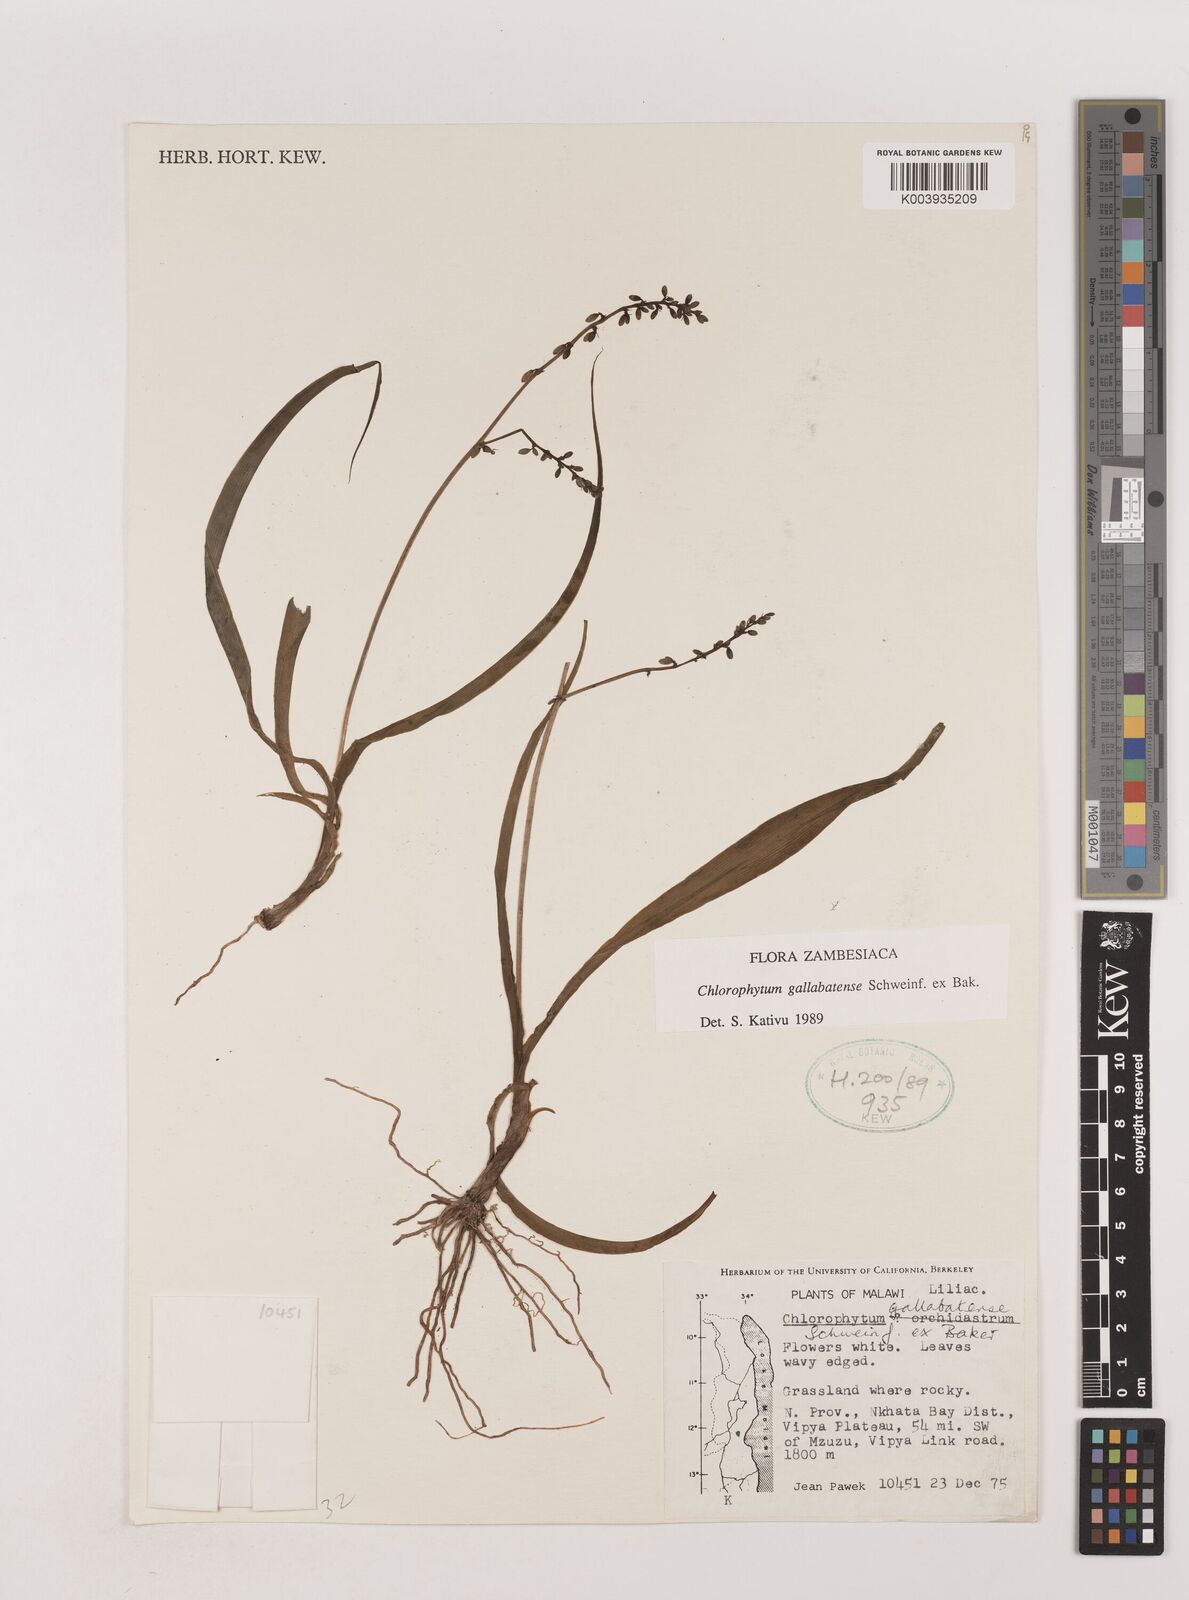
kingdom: Plantae
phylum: Tracheophyta
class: Liliopsida
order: Asparagales
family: Asparagaceae
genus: Chlorophytum
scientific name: Chlorophytum gallabatense
